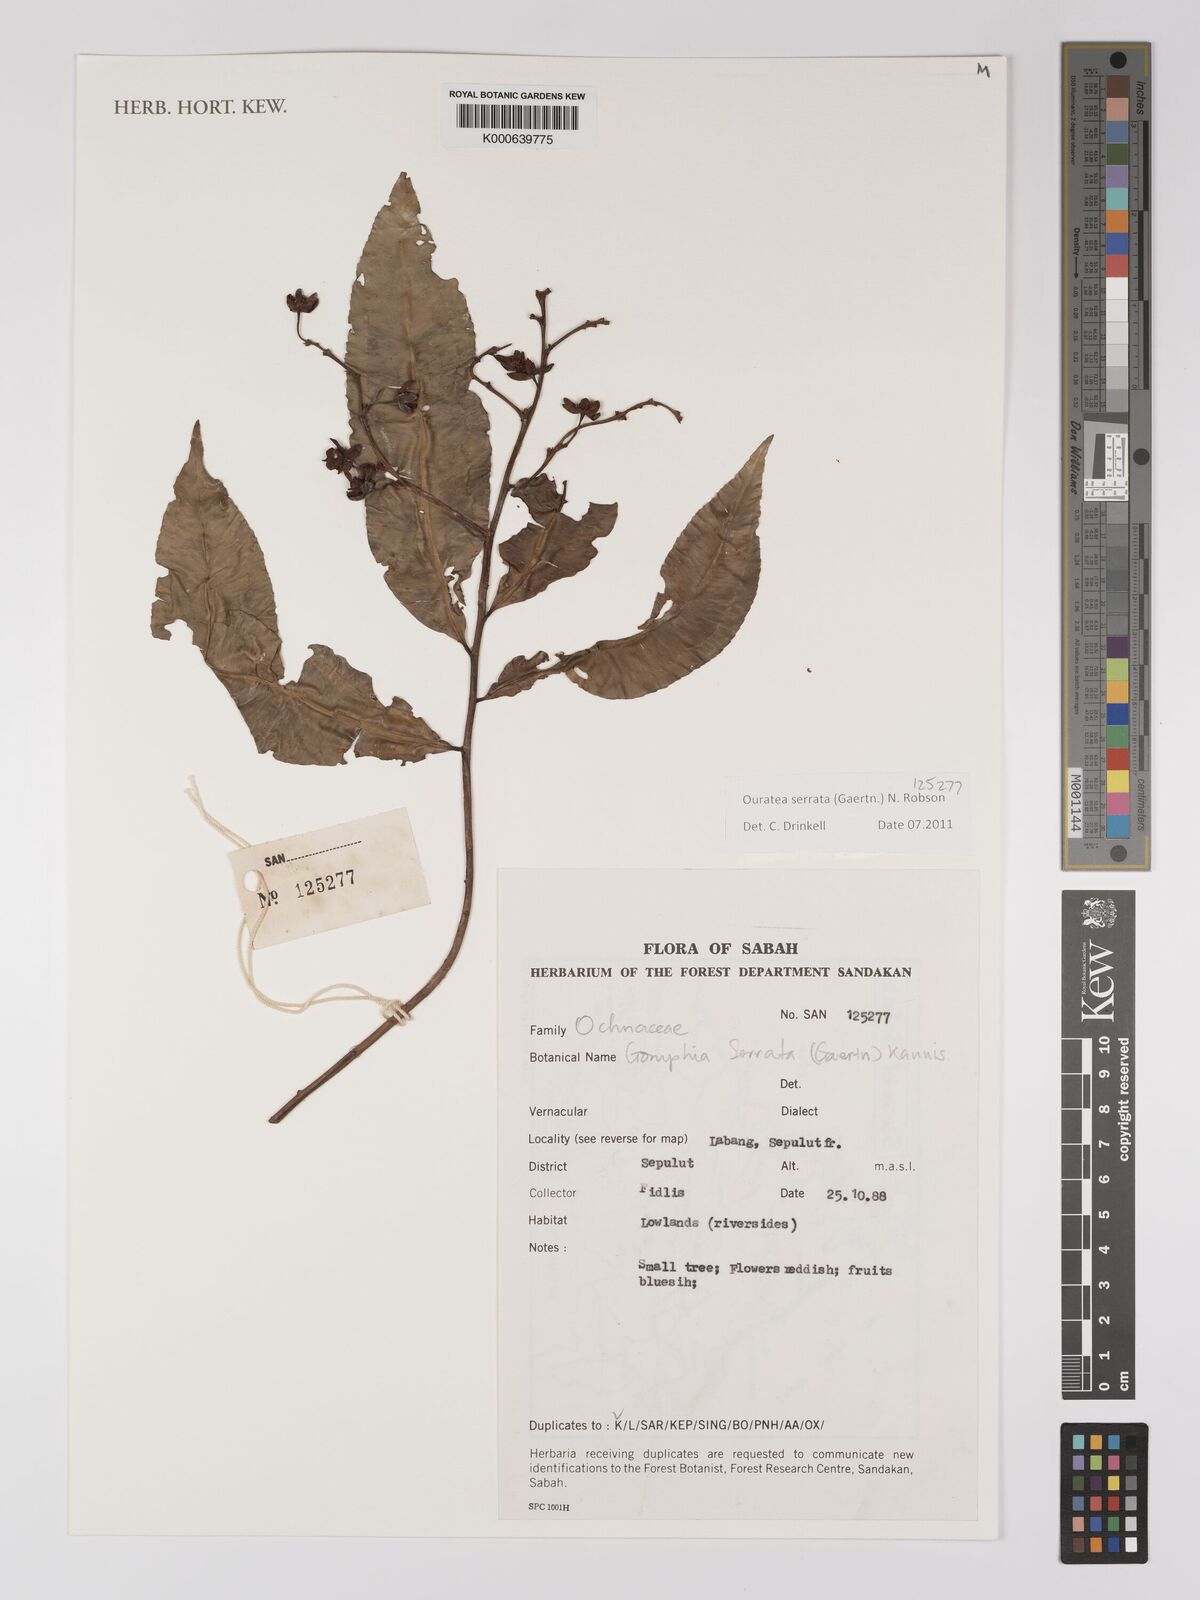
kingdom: Plantae
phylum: Tracheophyta
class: Magnoliopsida
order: Malpighiales
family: Ochnaceae
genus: Gomphia
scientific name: Gomphia serrata
